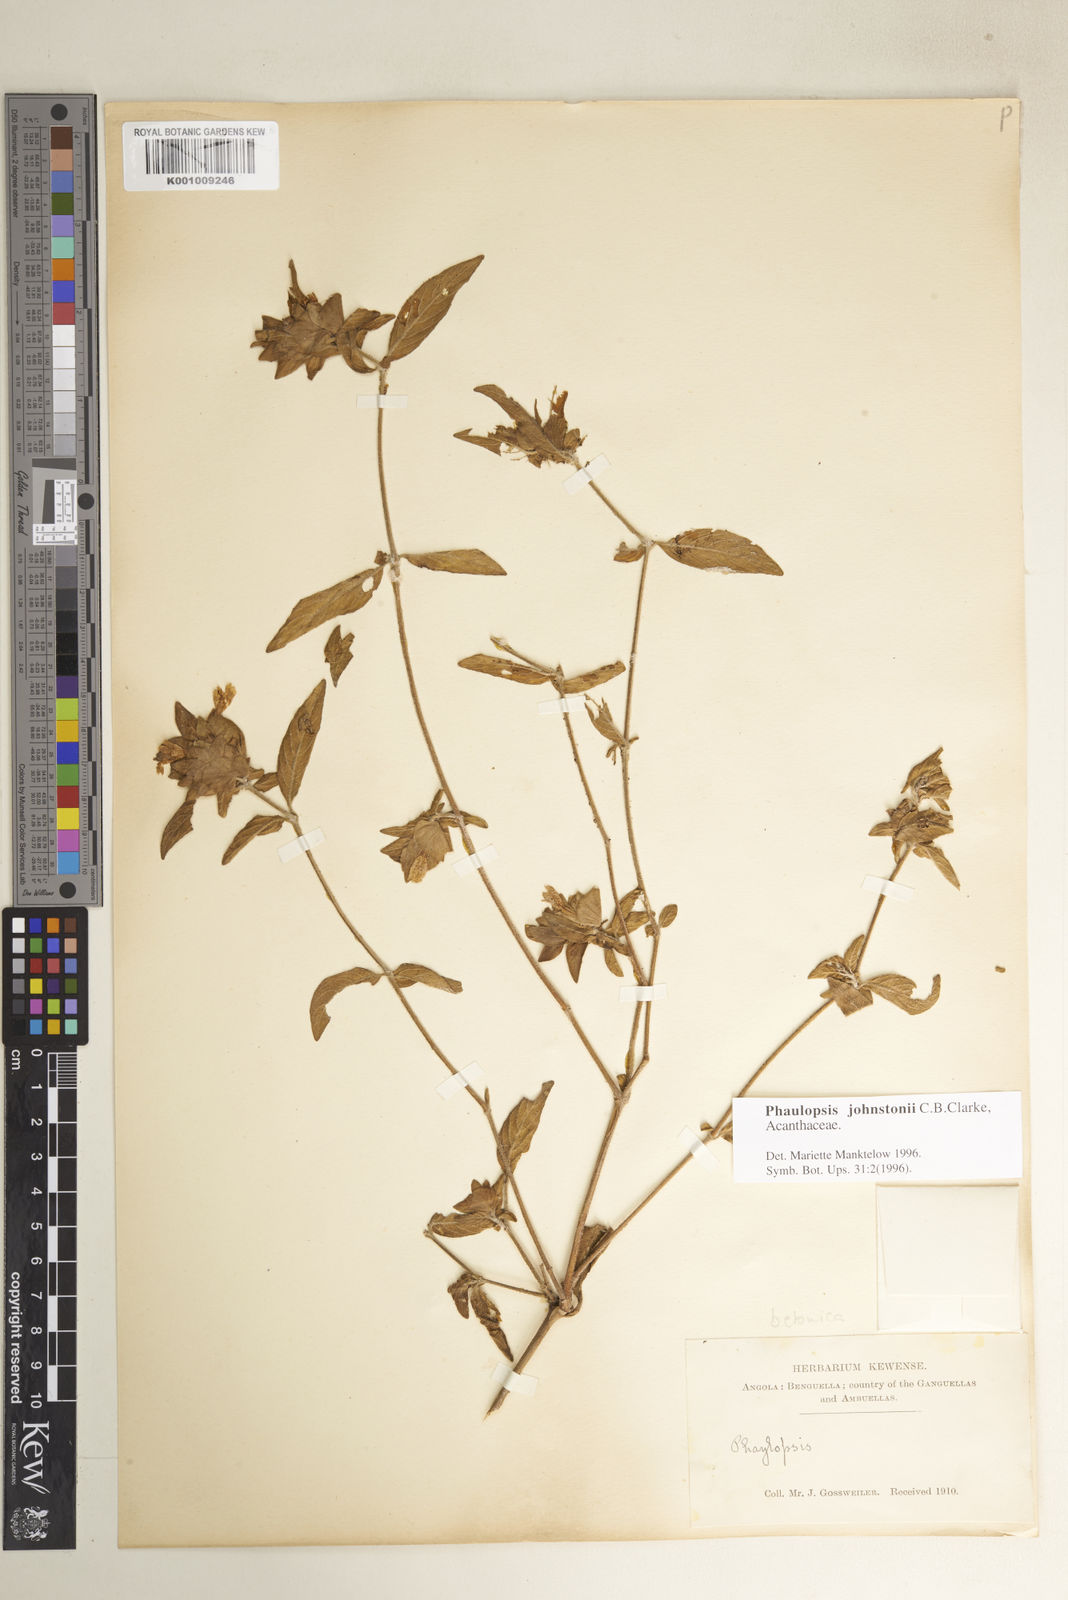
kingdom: Plantae
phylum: Tracheophyta
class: Magnoliopsida
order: Lamiales
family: Acanthaceae
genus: Phaulopsis
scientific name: Phaulopsis johnstonii
